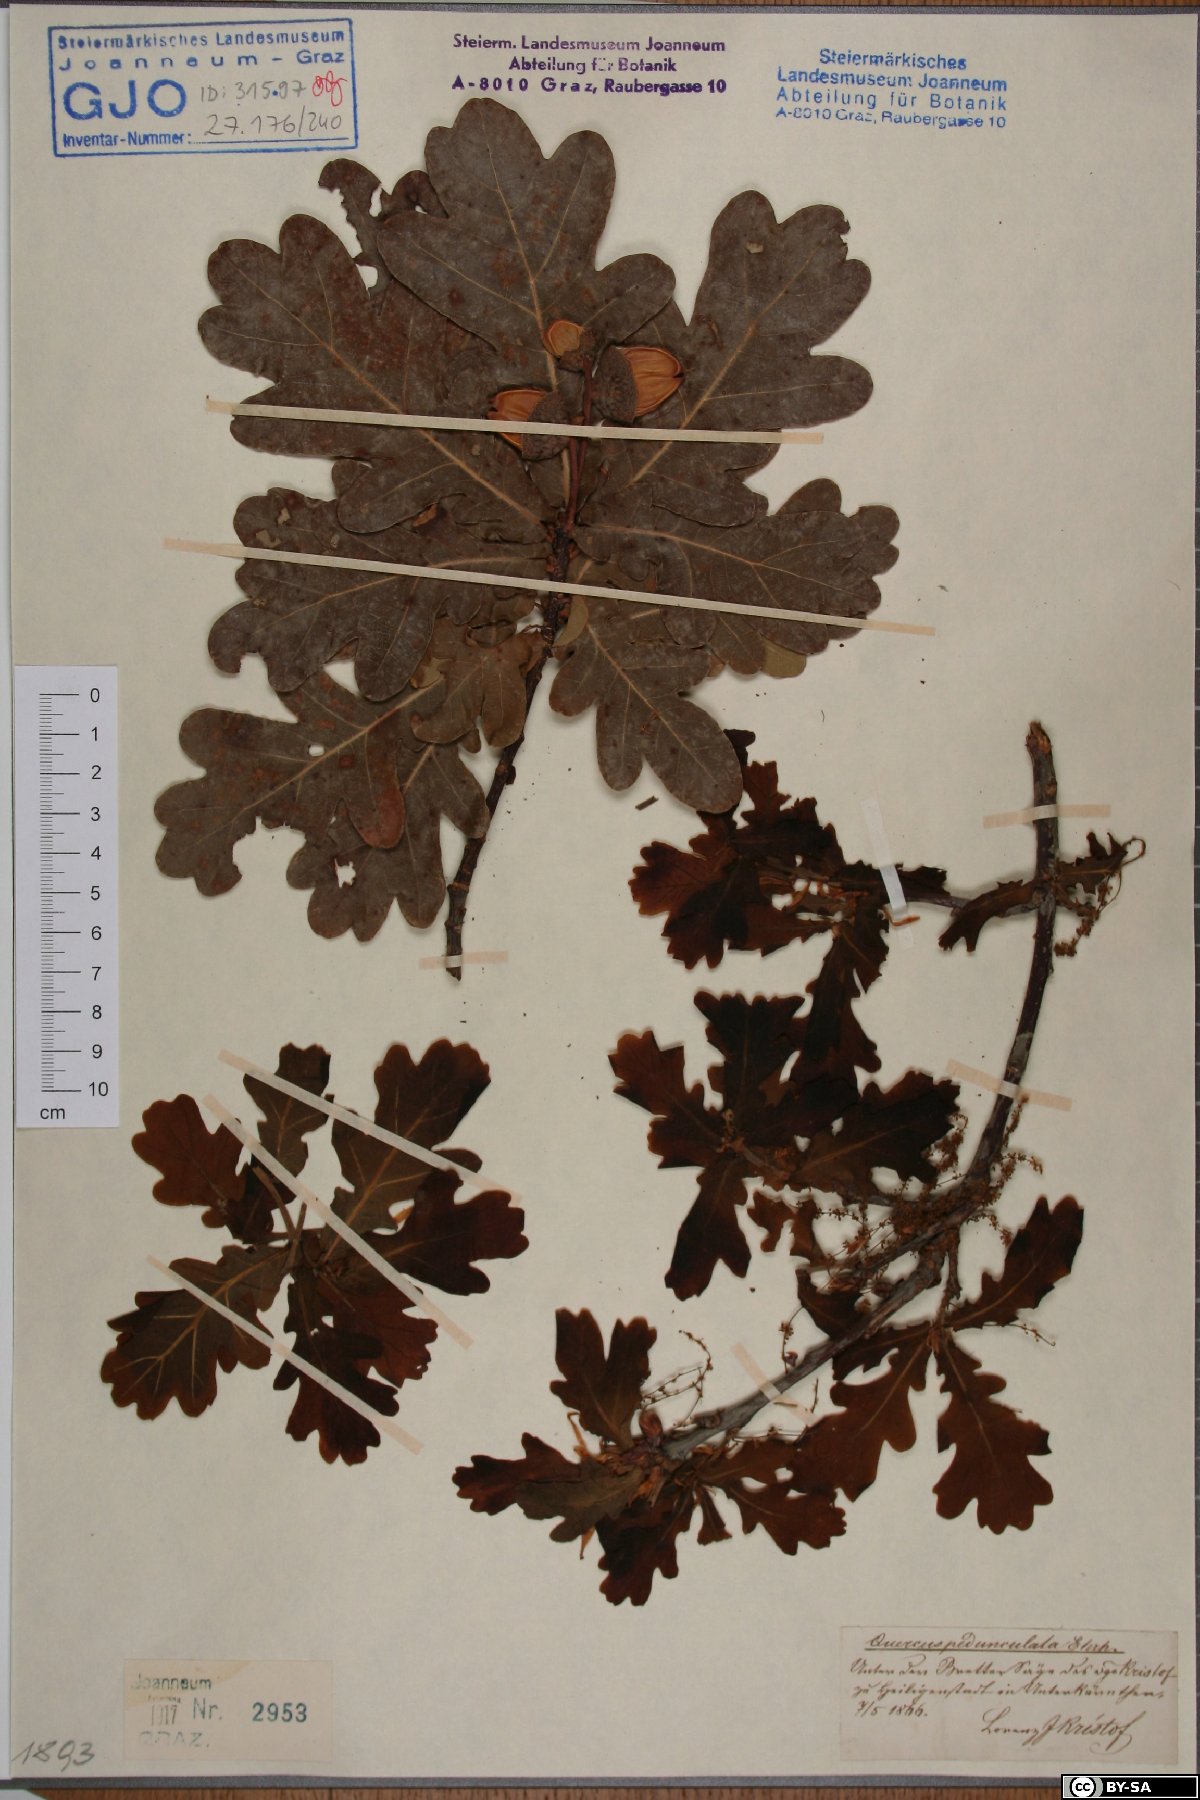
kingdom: Plantae
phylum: Tracheophyta
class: Magnoliopsida
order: Fagales
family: Fagaceae
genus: Quercus
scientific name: Quercus robur
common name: Pedunculate oak
